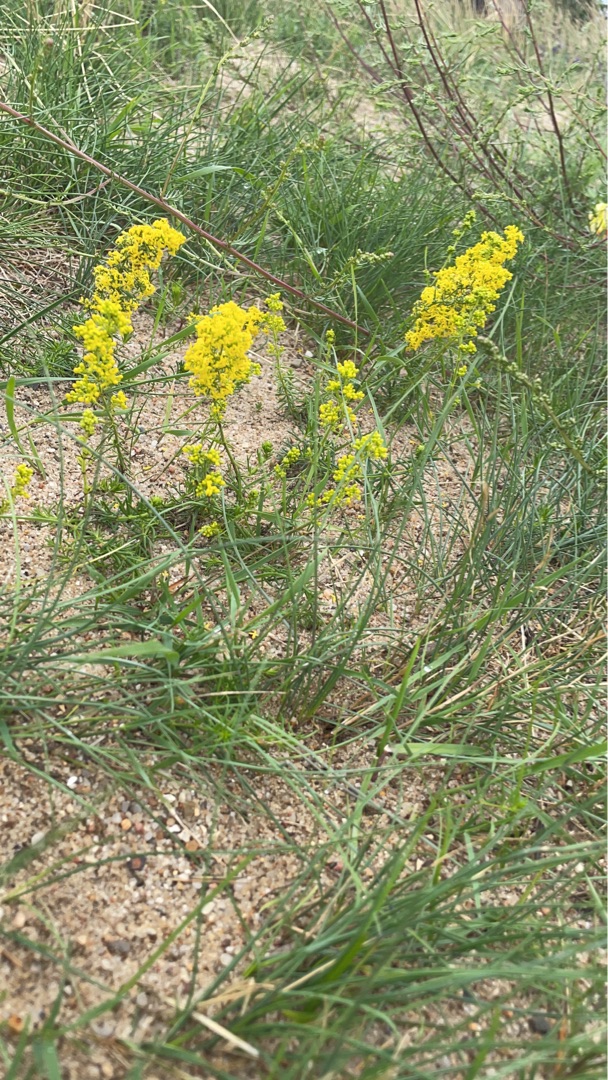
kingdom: Plantae
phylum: Tracheophyta
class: Magnoliopsida
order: Gentianales
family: Rubiaceae
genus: Galium
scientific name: Galium verum
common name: Gul snerre
